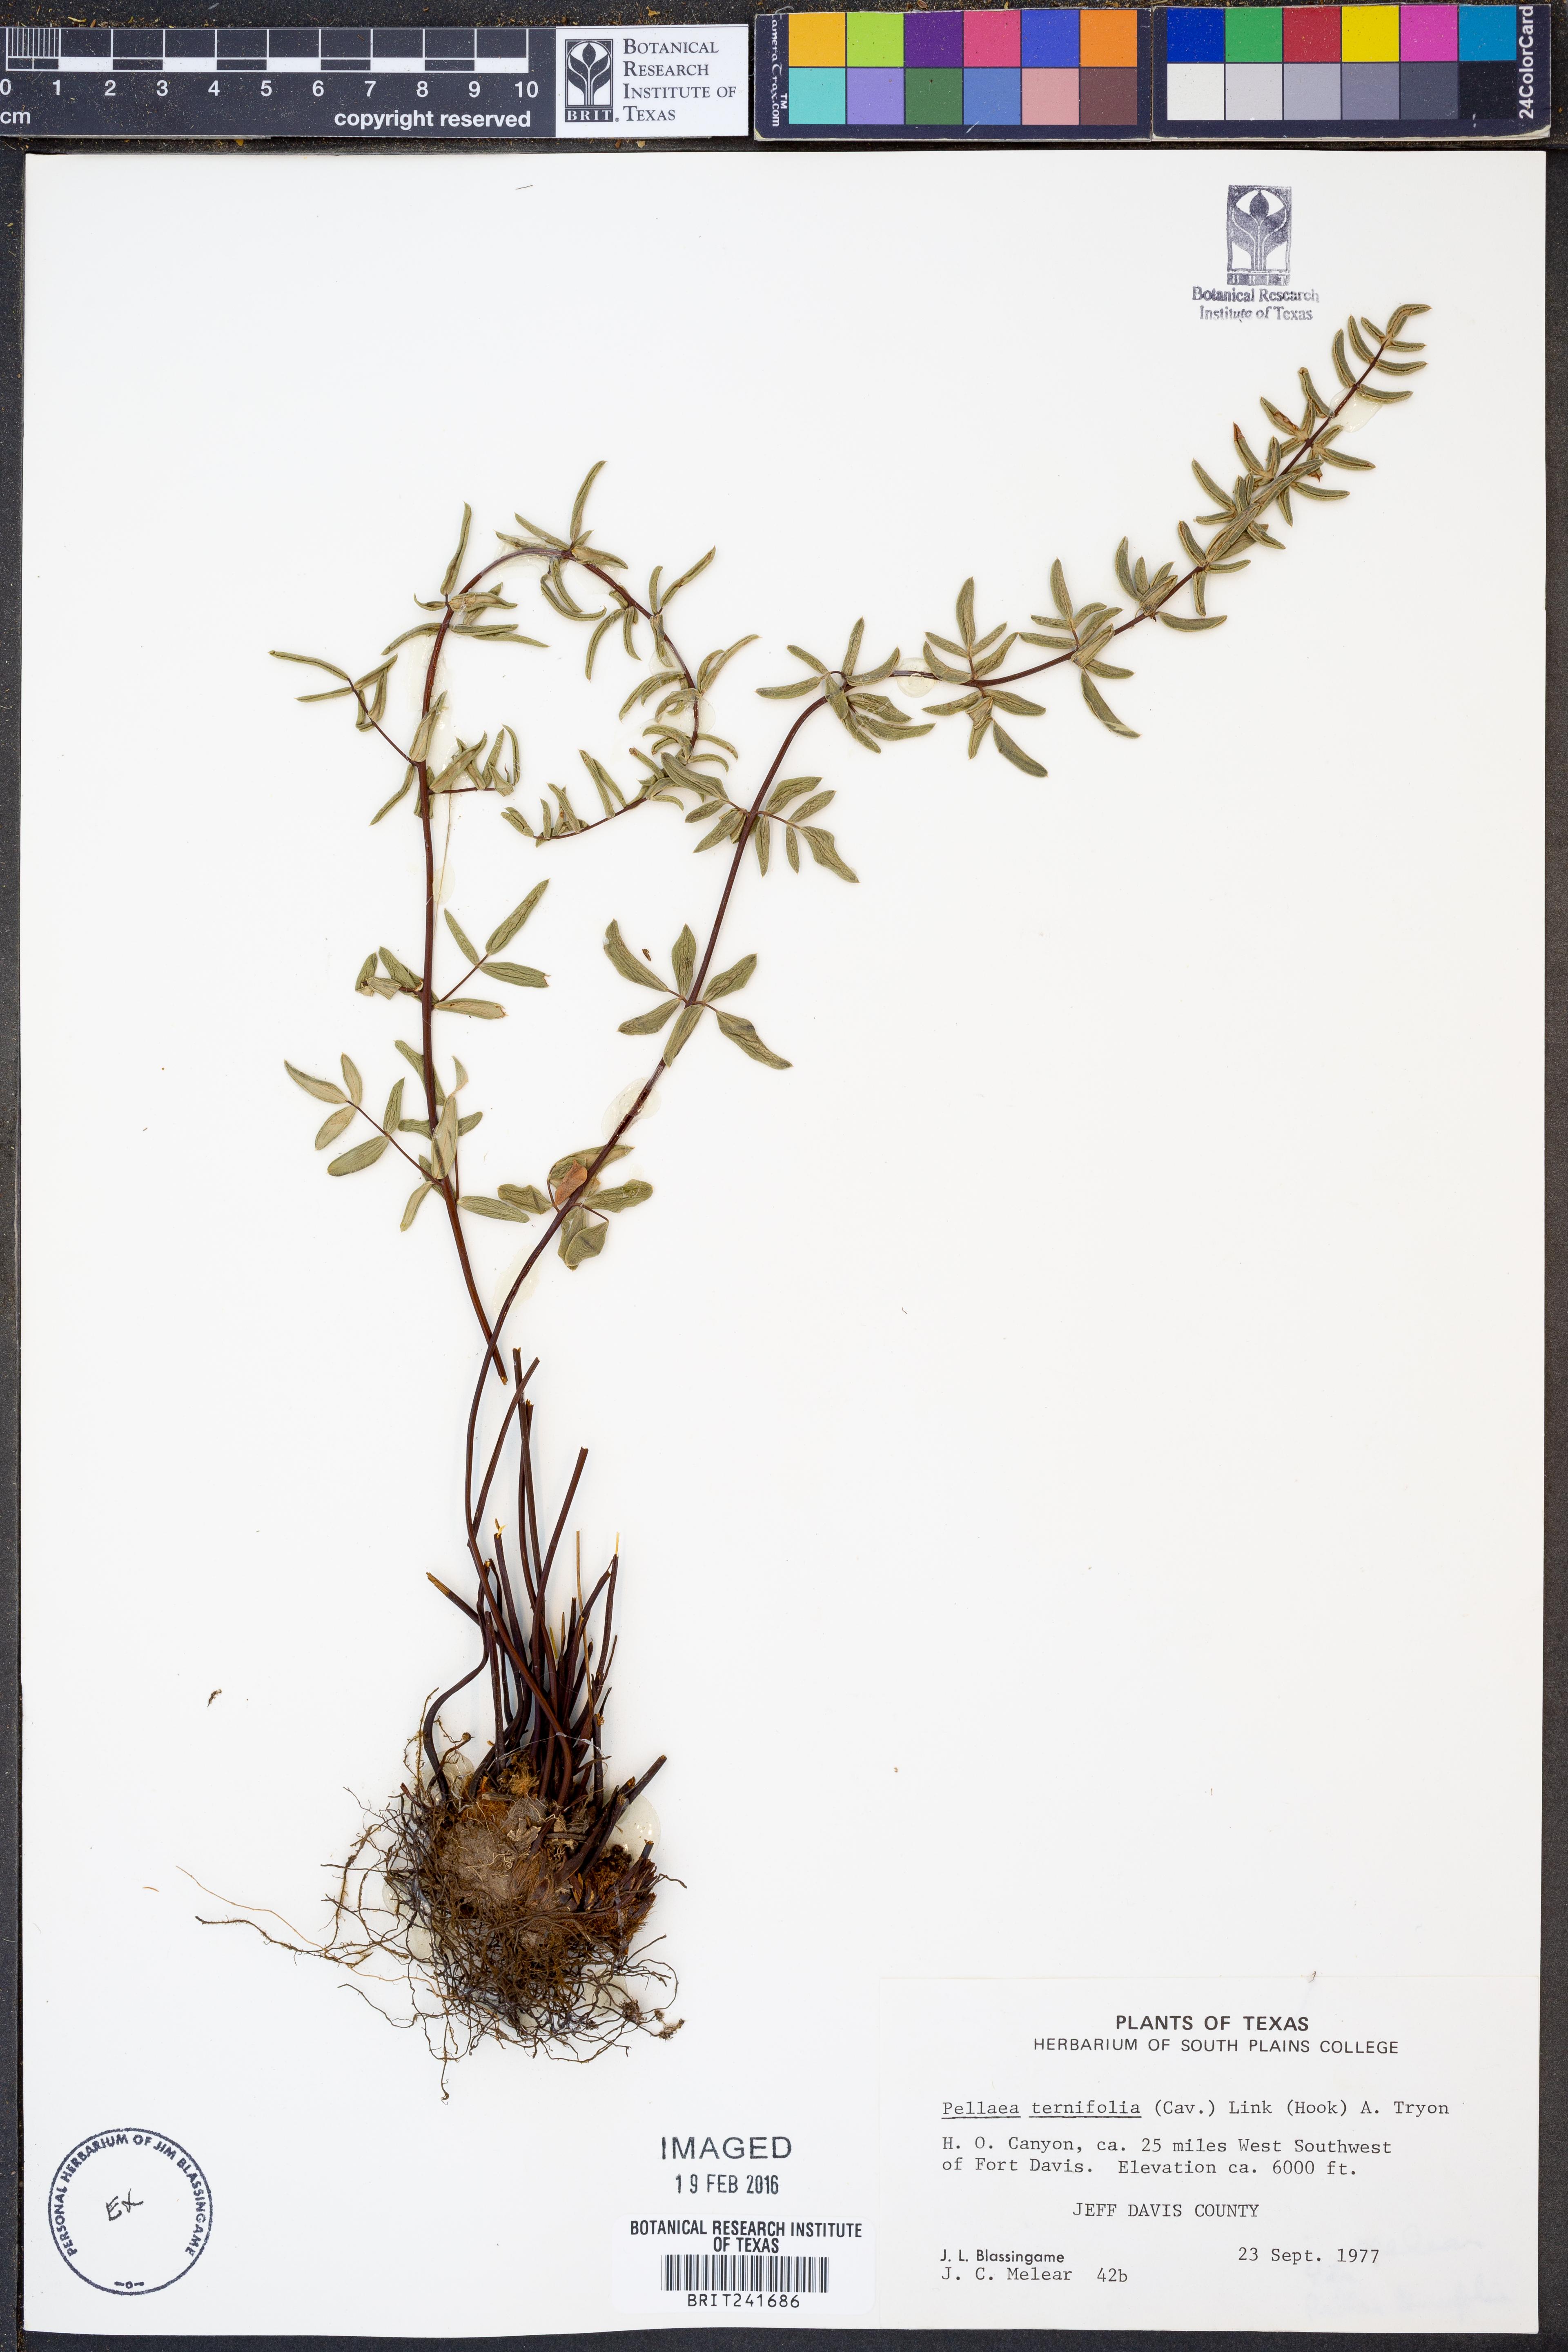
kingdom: Plantae
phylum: Tracheophyta
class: Polypodiopsida
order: Polypodiales
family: Pteridaceae
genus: Pellaea
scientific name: Pellaea ternifolia
